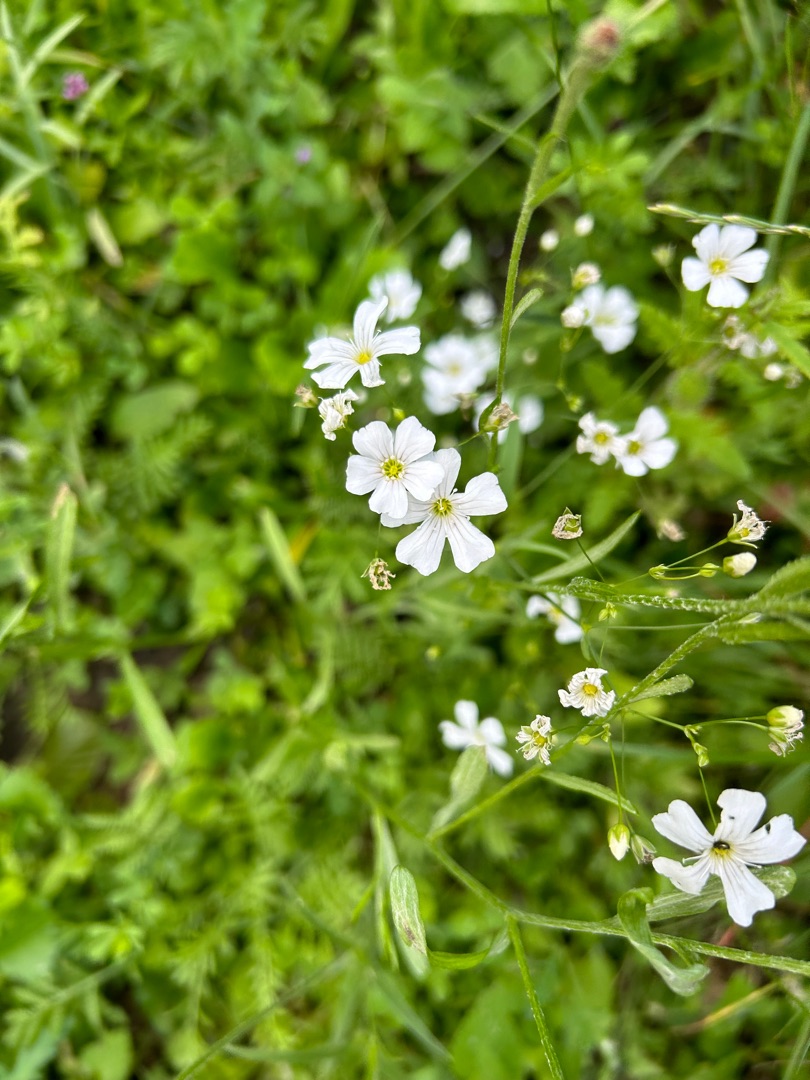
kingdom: Plantae
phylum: Tracheophyta
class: Magnoliopsida
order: Caryophyllales
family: Caryophyllaceae
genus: Gypsophila
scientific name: Gypsophila elegans
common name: Enårig brudeslør
